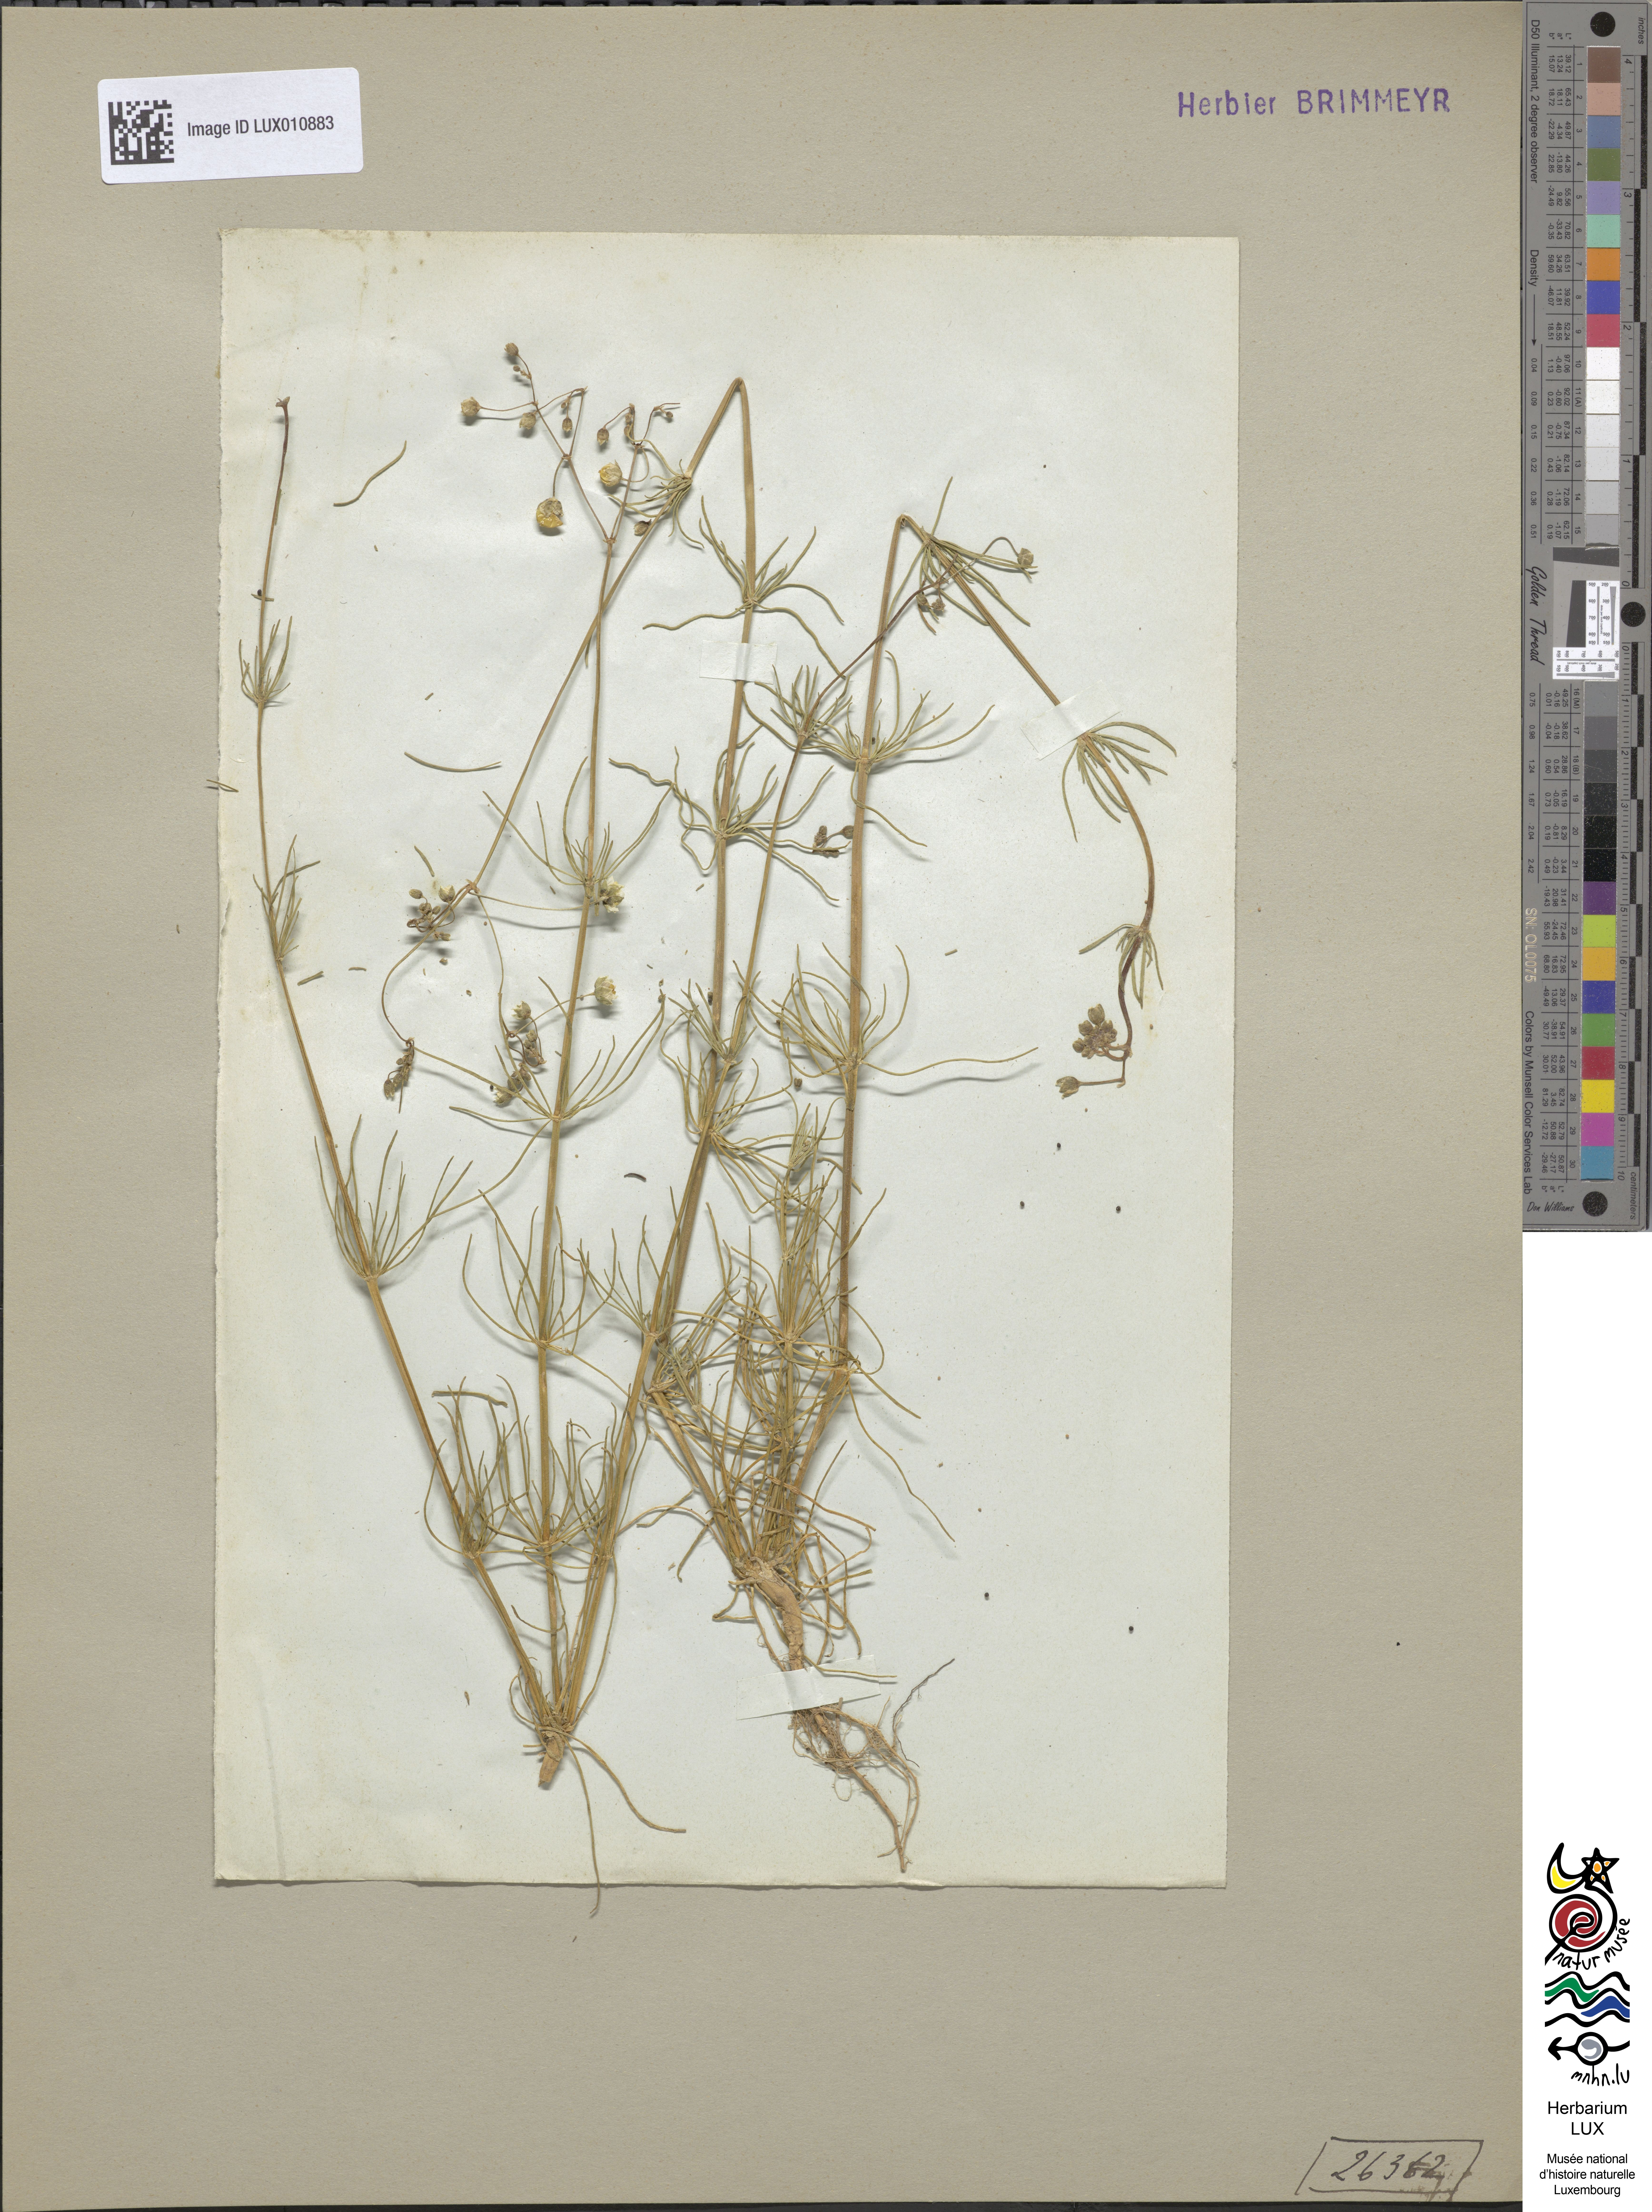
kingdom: Plantae
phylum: Tracheophyta
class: Magnoliopsida
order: Caryophyllales
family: Caryophyllaceae
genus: Spergula
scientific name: Spergula arvensis
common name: Corn spurrey
